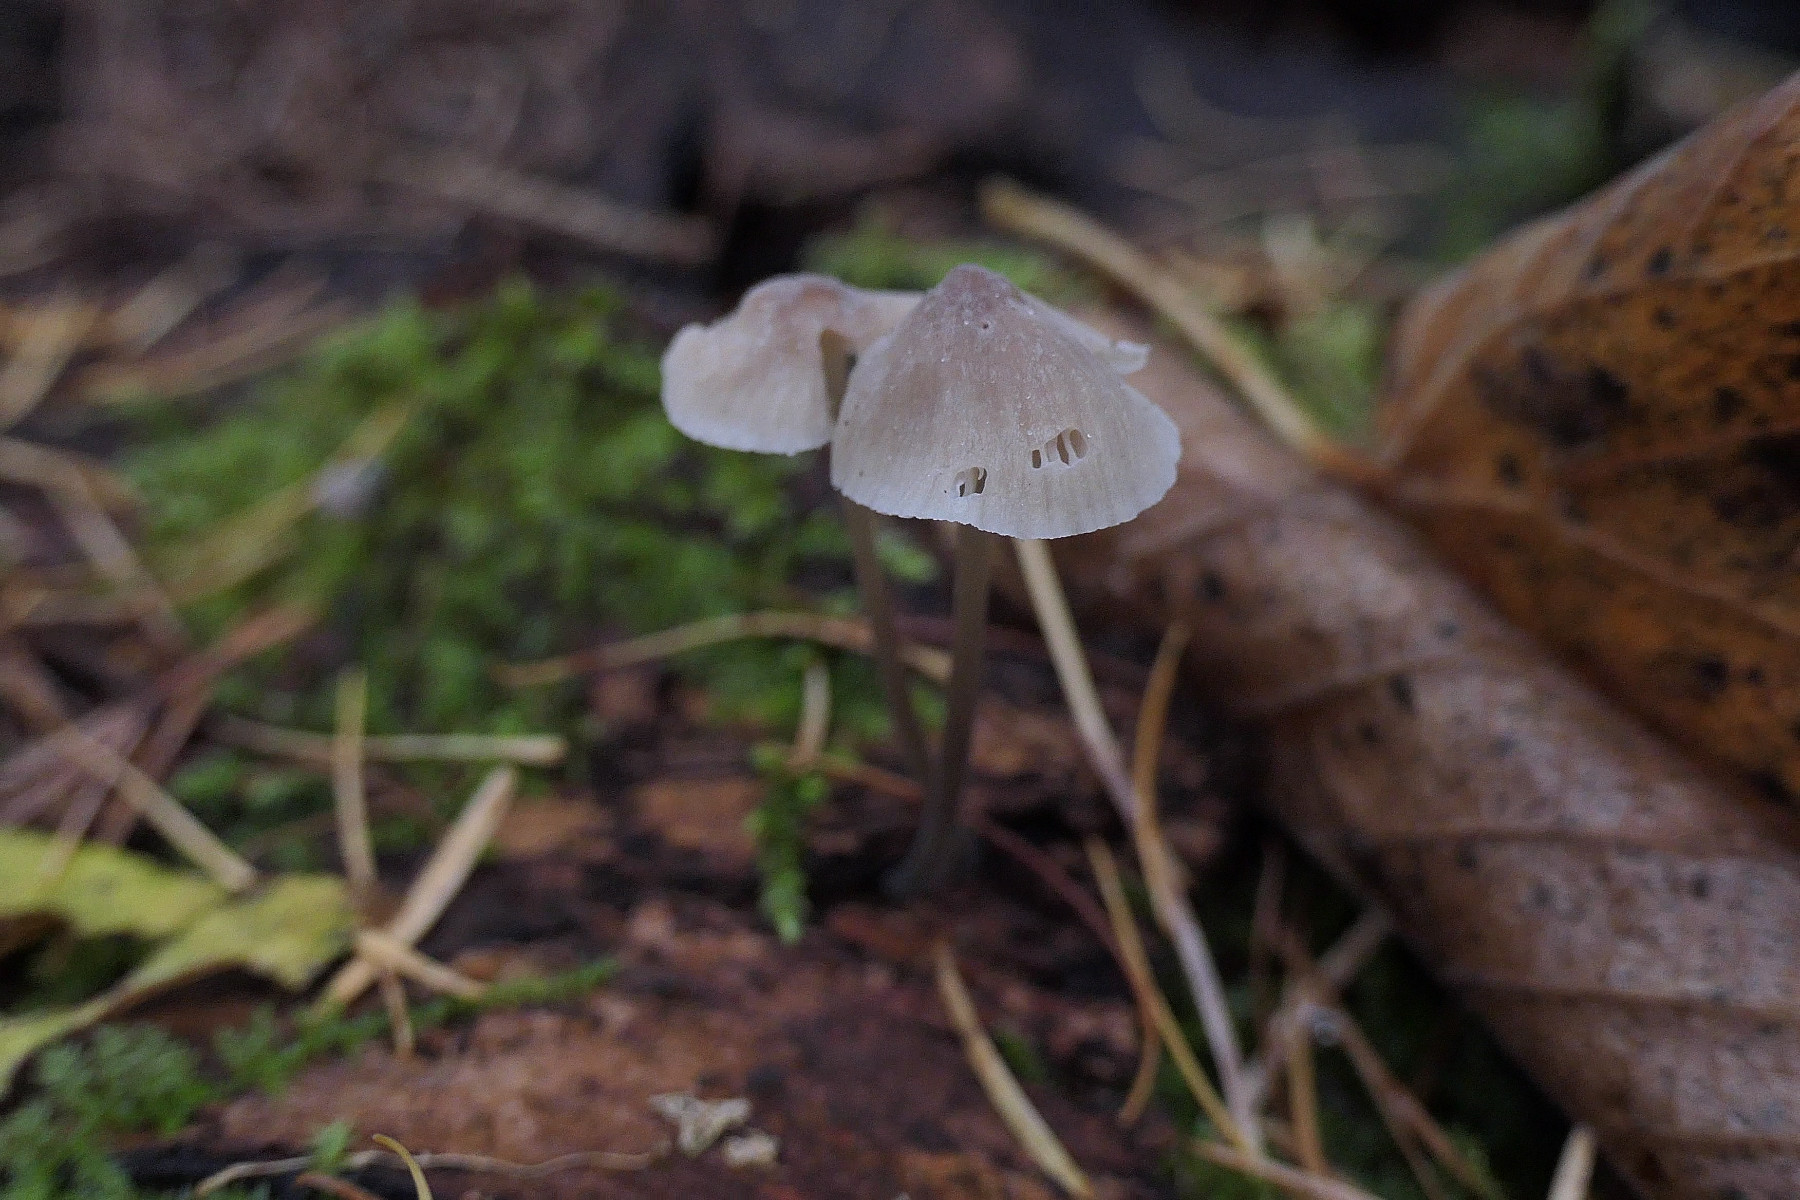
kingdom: Fungi
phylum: Basidiomycota
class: Agaricomycetes
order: Agaricales
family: Mycenaceae
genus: Mycena
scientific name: Mycena filopes
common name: jod-huesvamp
